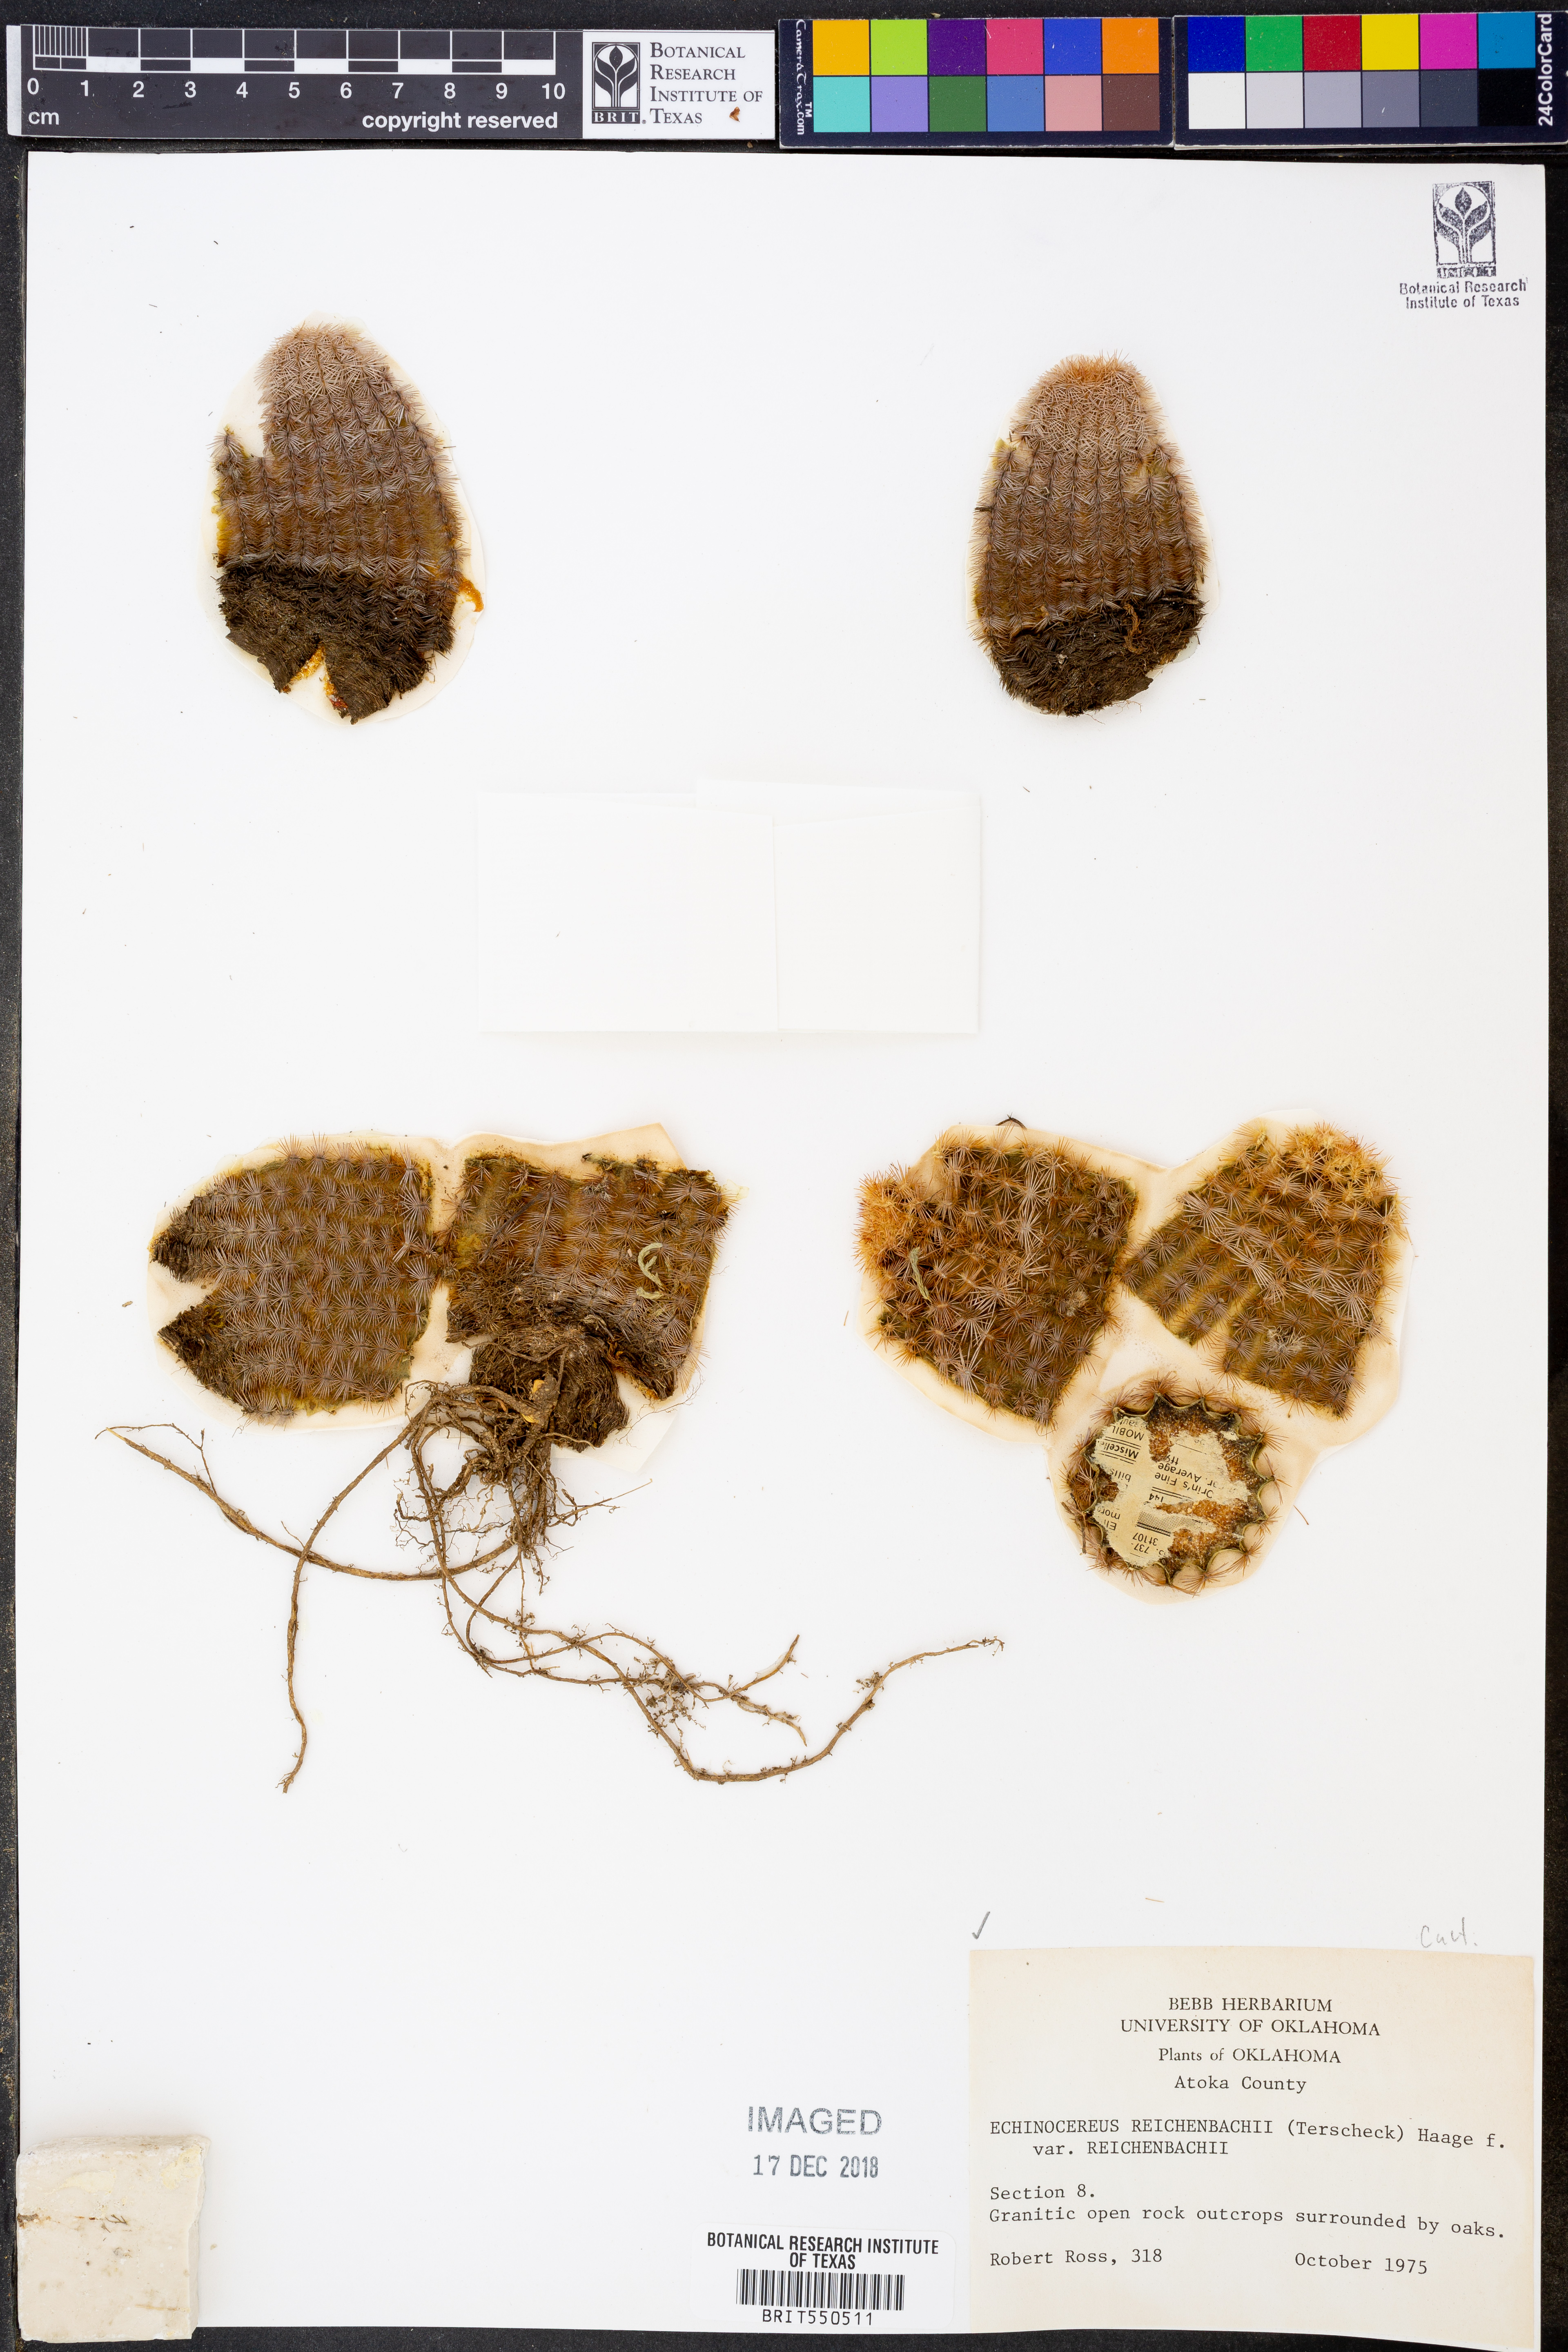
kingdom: Plantae
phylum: Tracheophyta
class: Magnoliopsida
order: Caryophyllales
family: Cactaceae
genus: Echinocereus
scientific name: Echinocereus reichenbachii
